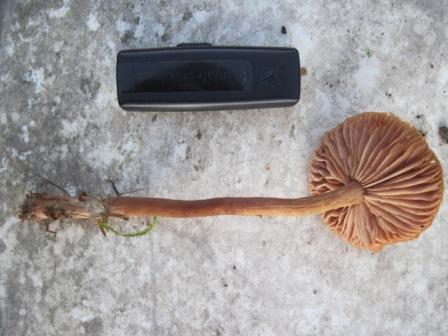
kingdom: Fungi
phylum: Basidiomycota
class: Agaricomycetes
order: Agaricales
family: Hydnangiaceae
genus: Laccaria
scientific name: Laccaria proxima
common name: stor ametysthat
